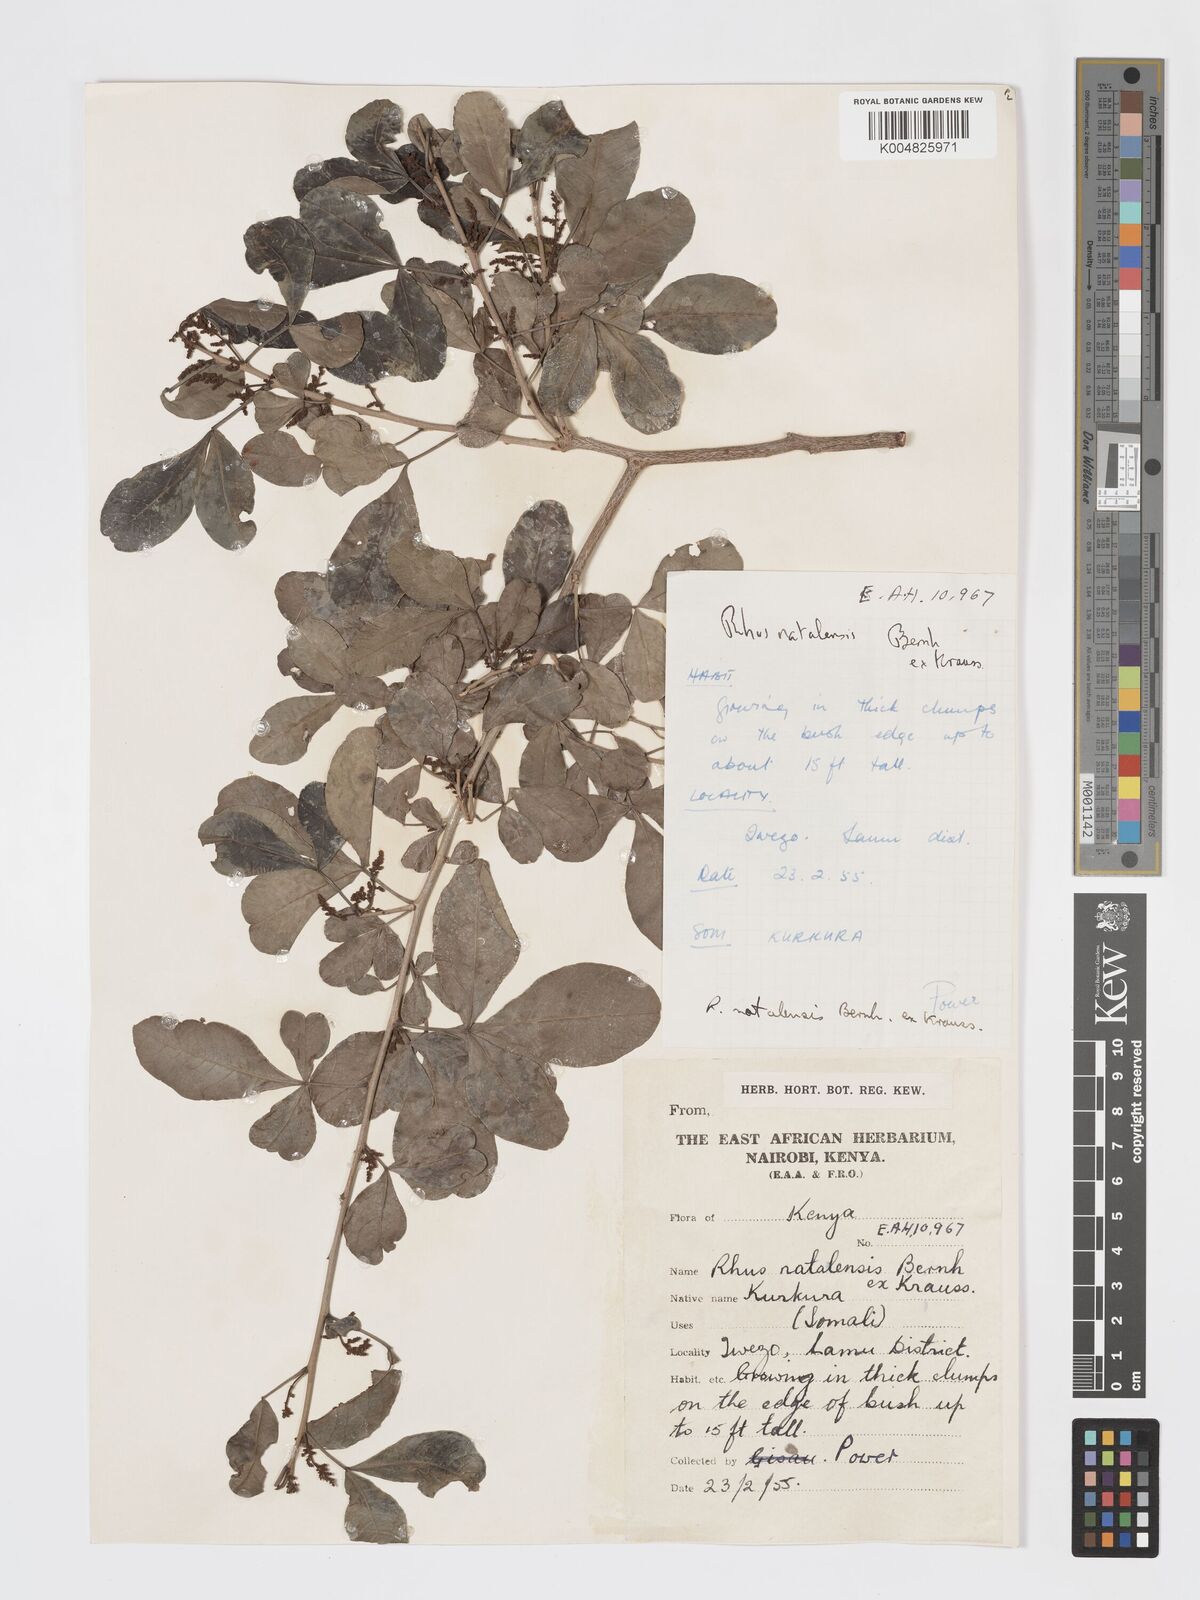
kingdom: Plantae
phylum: Tracheophyta
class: Magnoliopsida
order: Sapindales
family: Anacardiaceae
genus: Searsia
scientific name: Searsia natalensis
